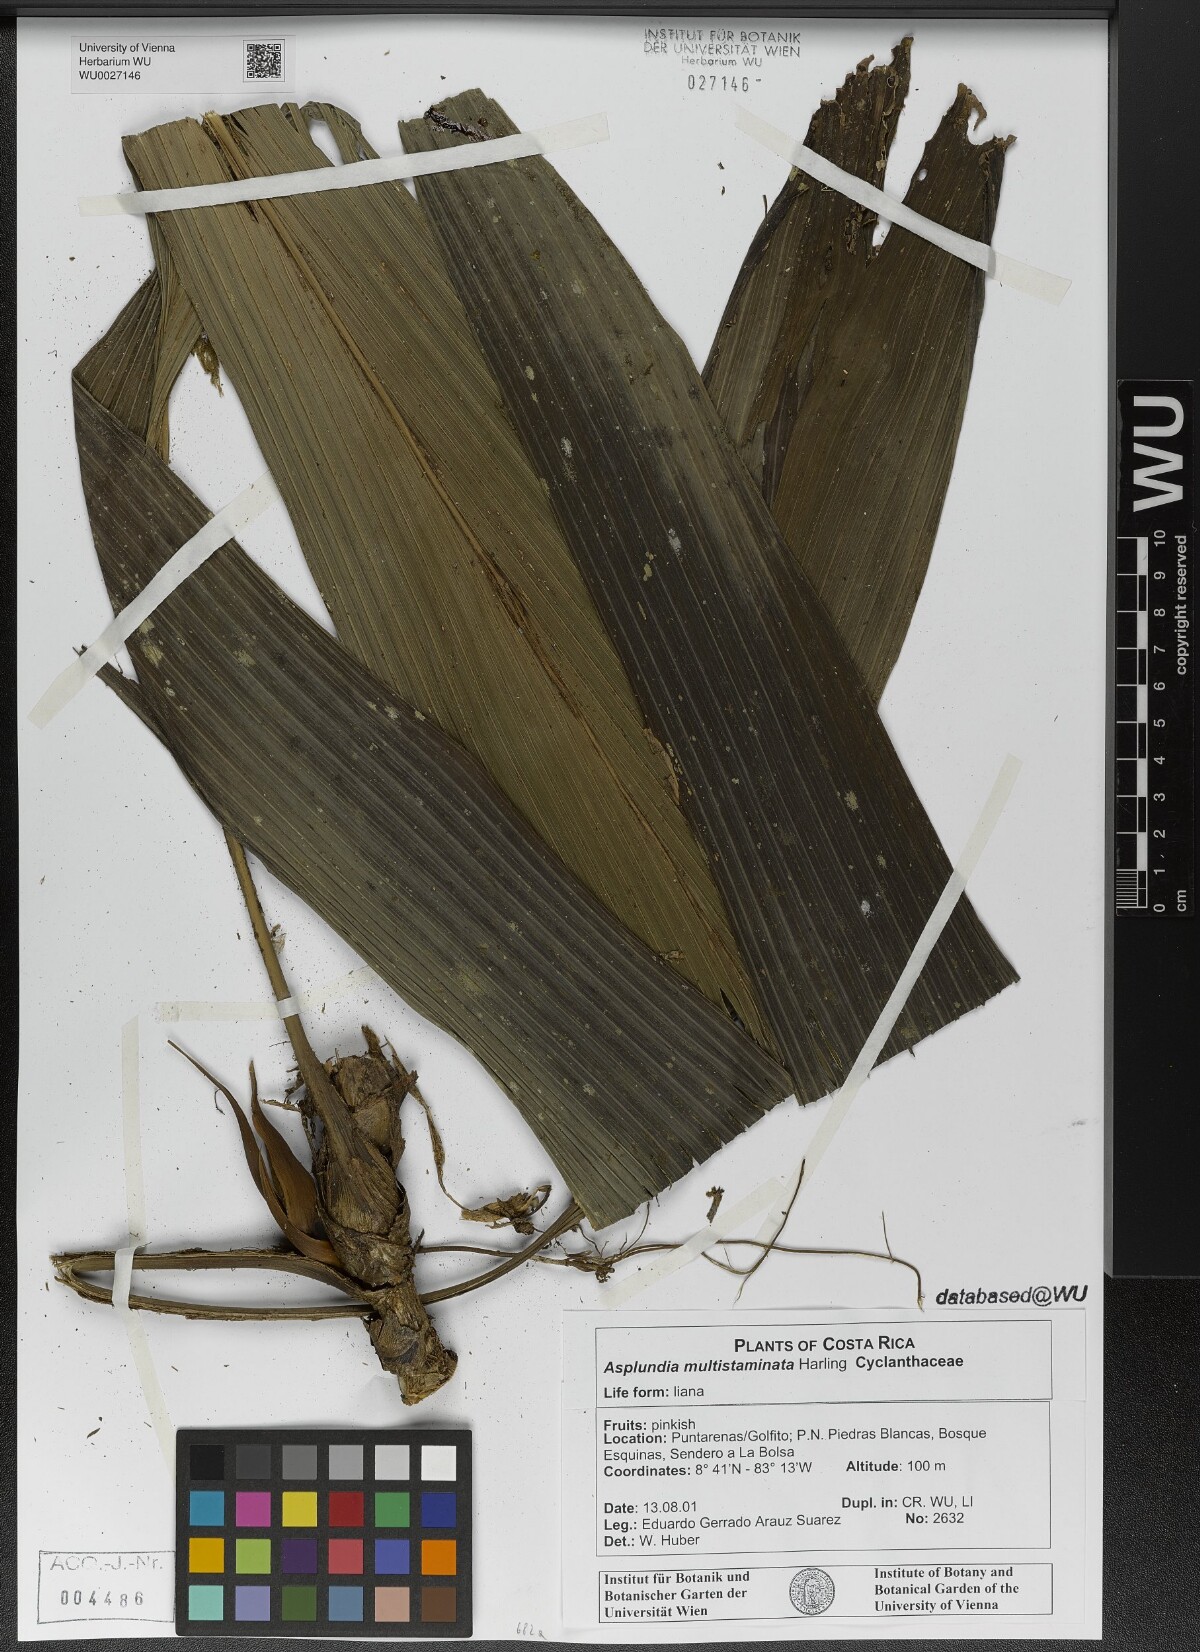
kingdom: Plantae
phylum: Tracheophyta
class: Liliopsida
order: Pandanales
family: Cyclanthaceae
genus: Asplundia
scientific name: Asplundia multistaminata
